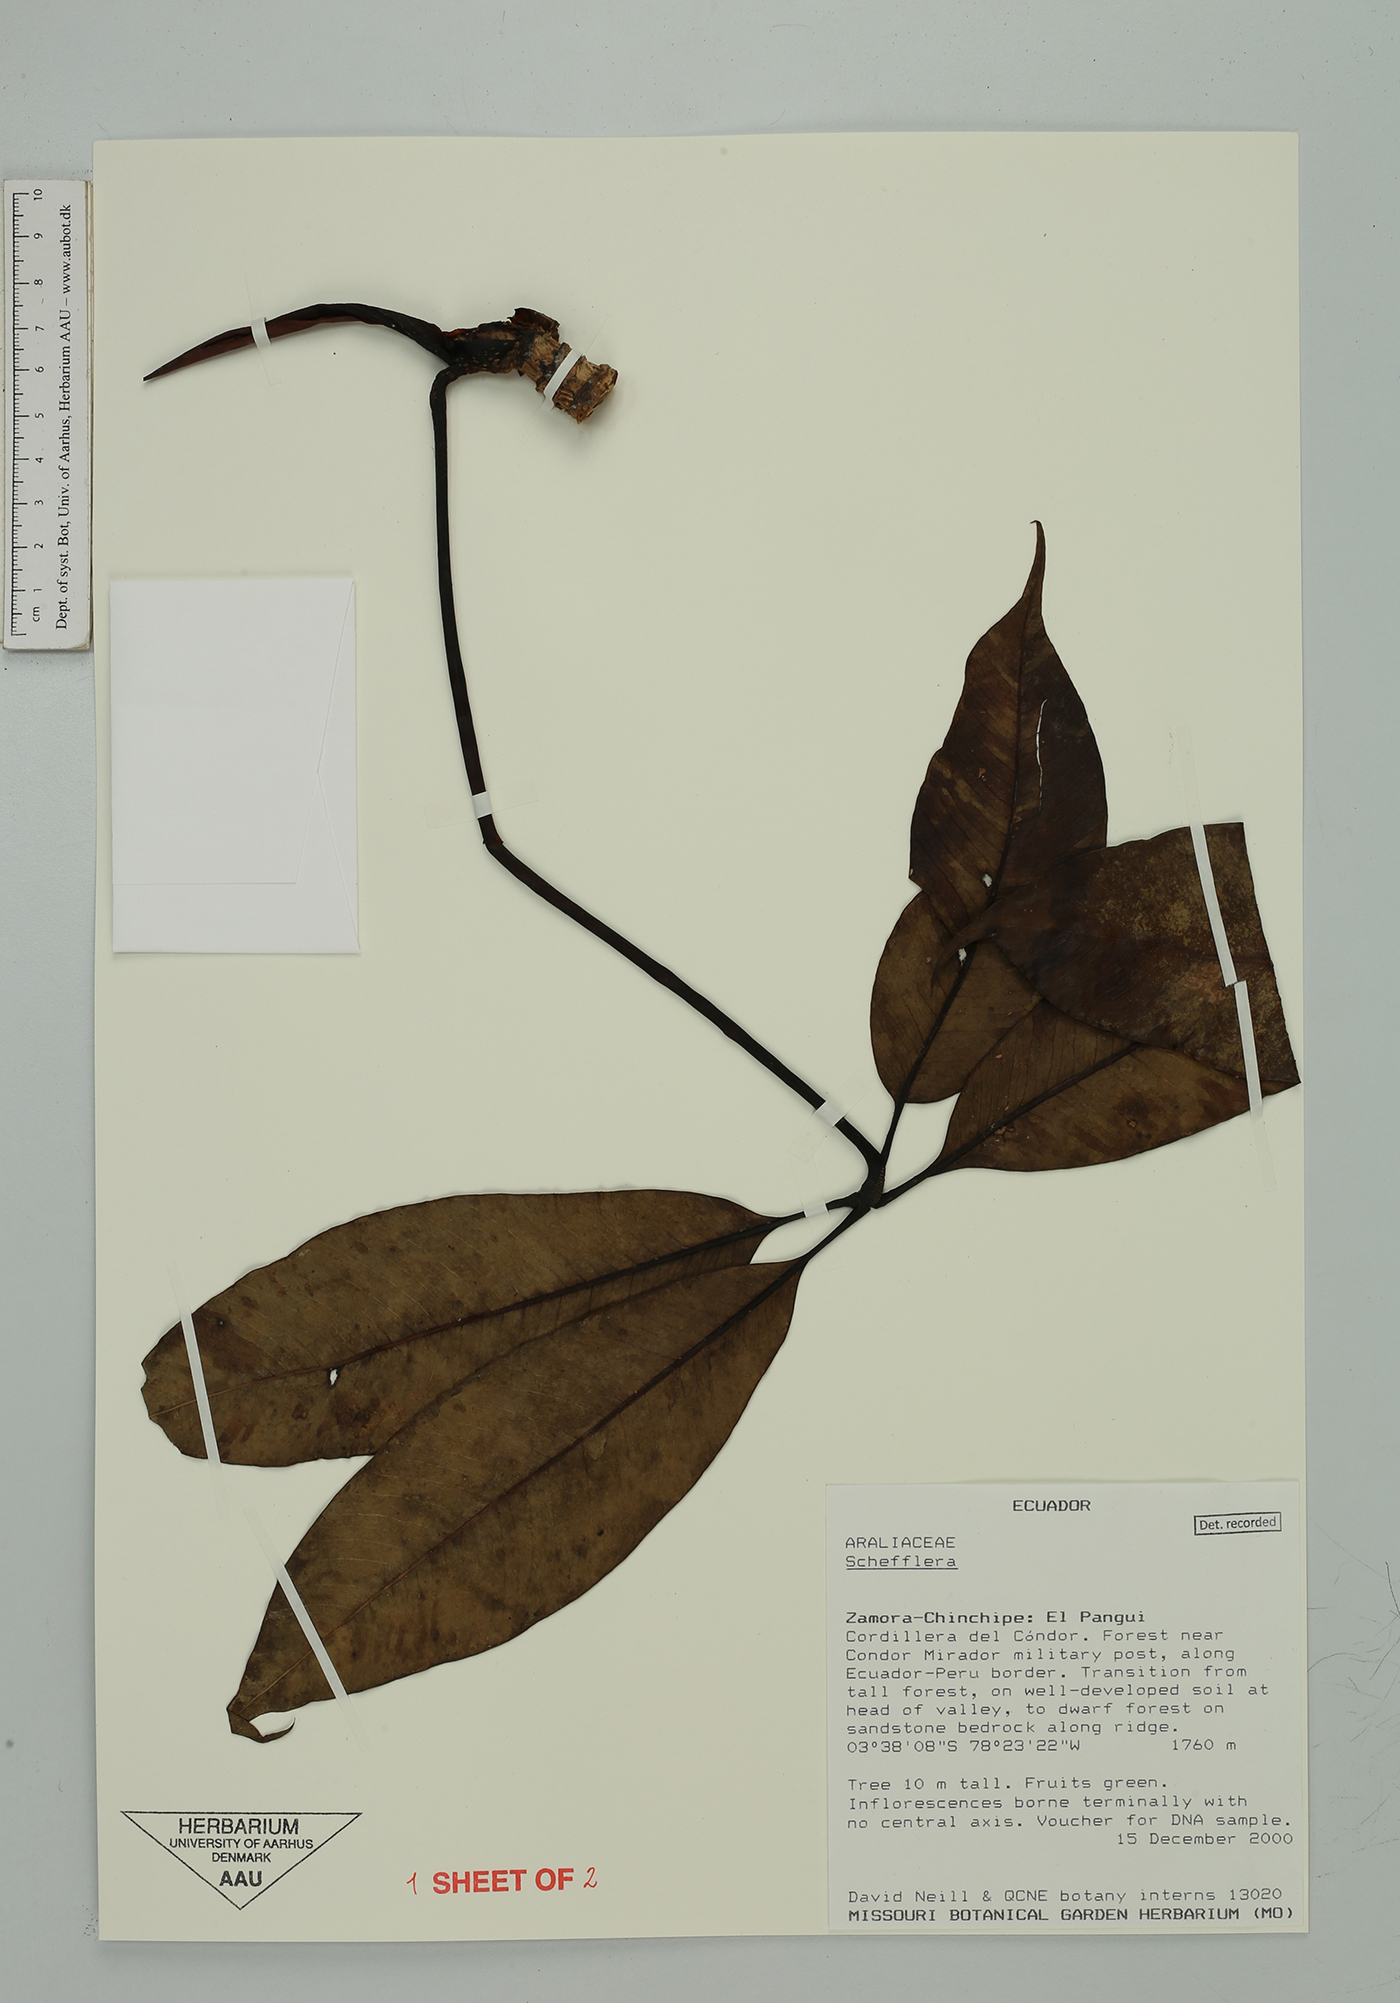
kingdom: Plantae
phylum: Tracheophyta
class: Magnoliopsida
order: Apiales
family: Araliaceae
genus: Sciodaphyllum
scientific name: Sciodaphyllum patulum
